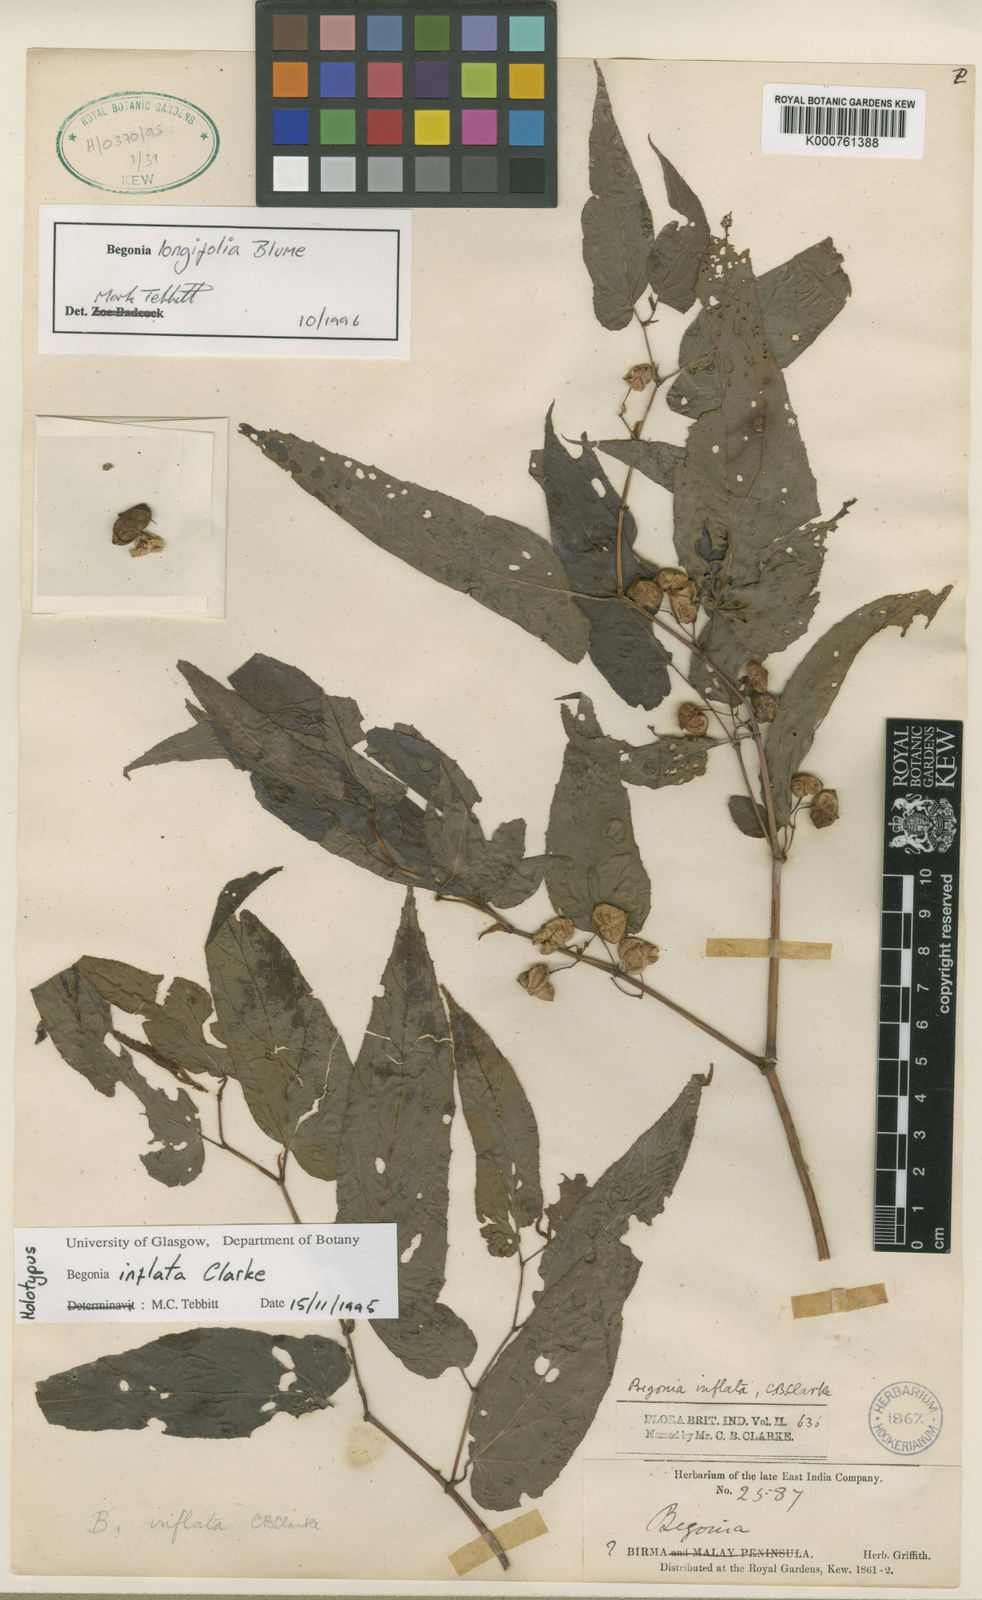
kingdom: Plantae
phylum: Tracheophyta
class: Magnoliopsida
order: Cucurbitales
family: Begoniaceae
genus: Begonia
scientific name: Begonia longifolia
